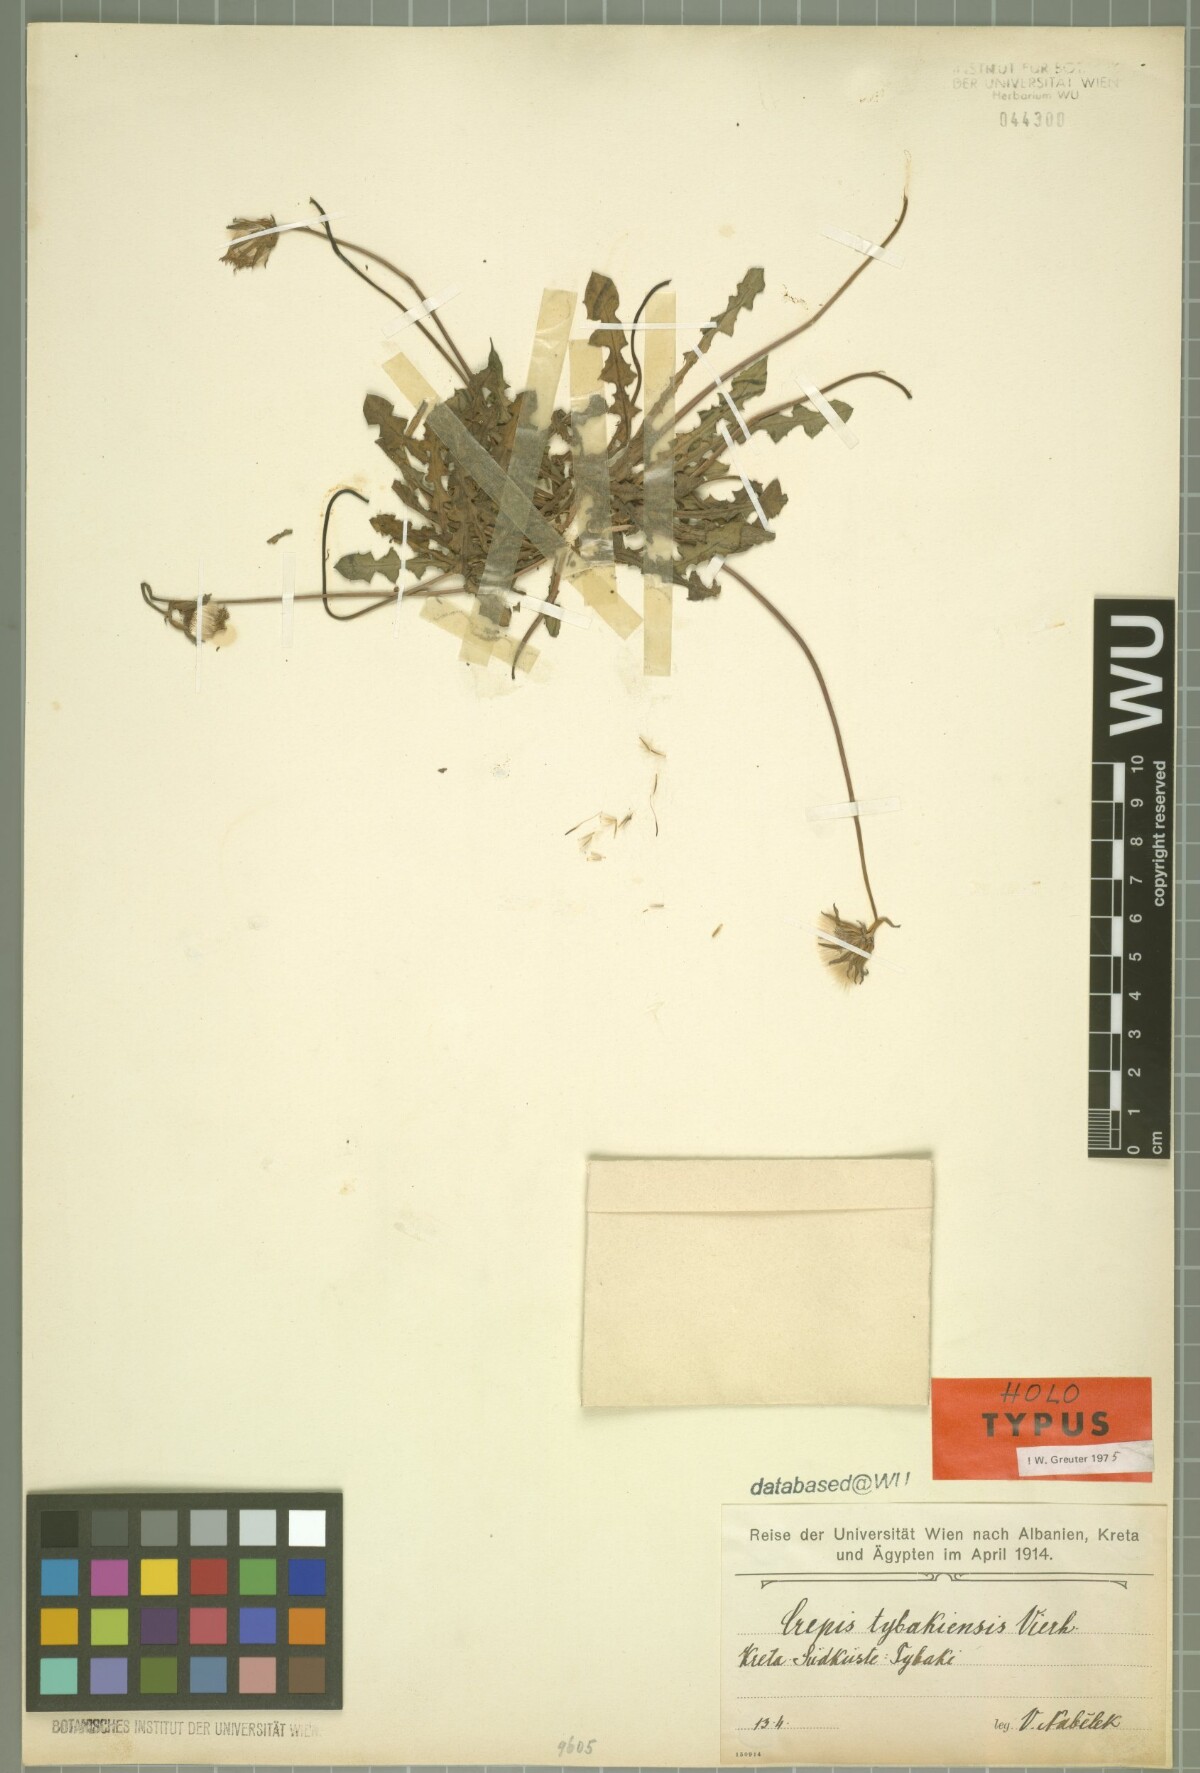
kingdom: Plantae
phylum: Tracheophyta
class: Magnoliopsida
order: Asterales
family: Asteraceae
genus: Crepis
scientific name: Crepis tybakiensis
